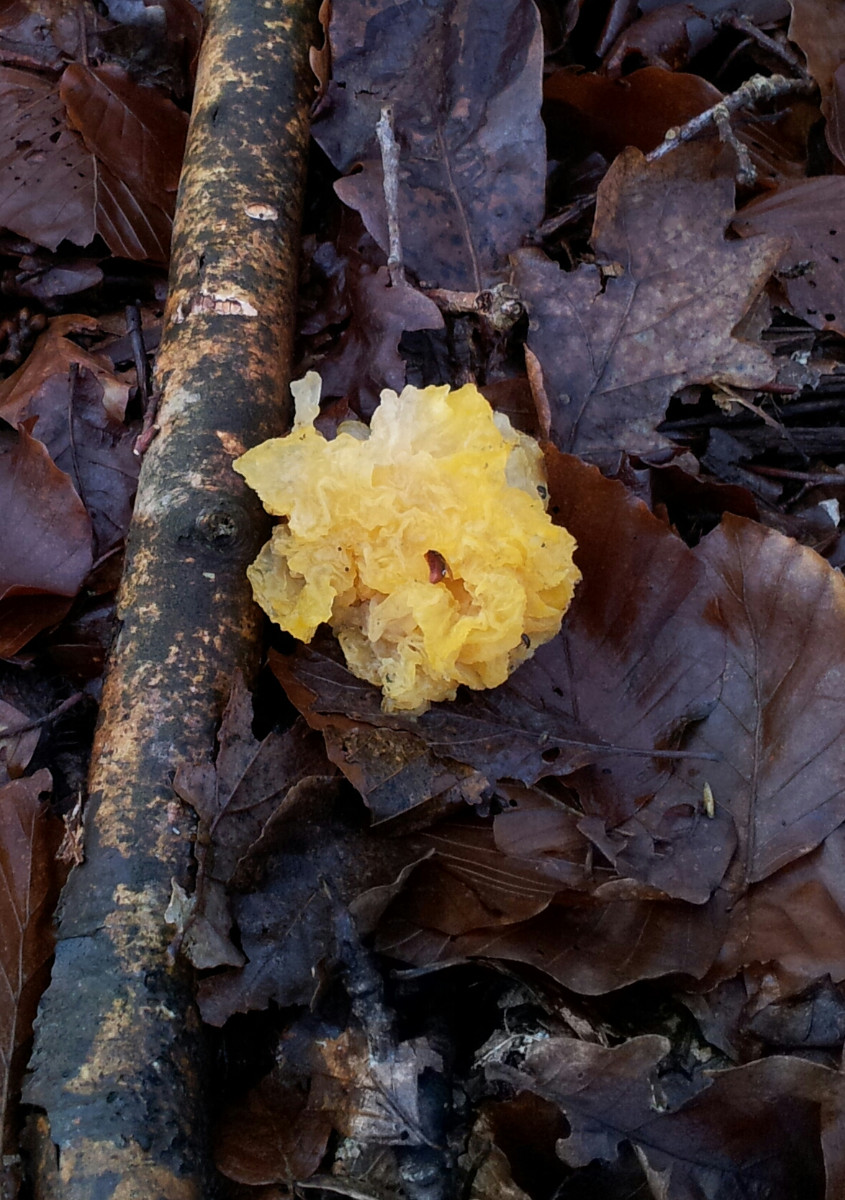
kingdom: Fungi
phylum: Basidiomycota
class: Tremellomycetes
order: Tremellales
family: Tremellaceae
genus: Tremella
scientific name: Tremella mesenterica
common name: gul bævresvamp
